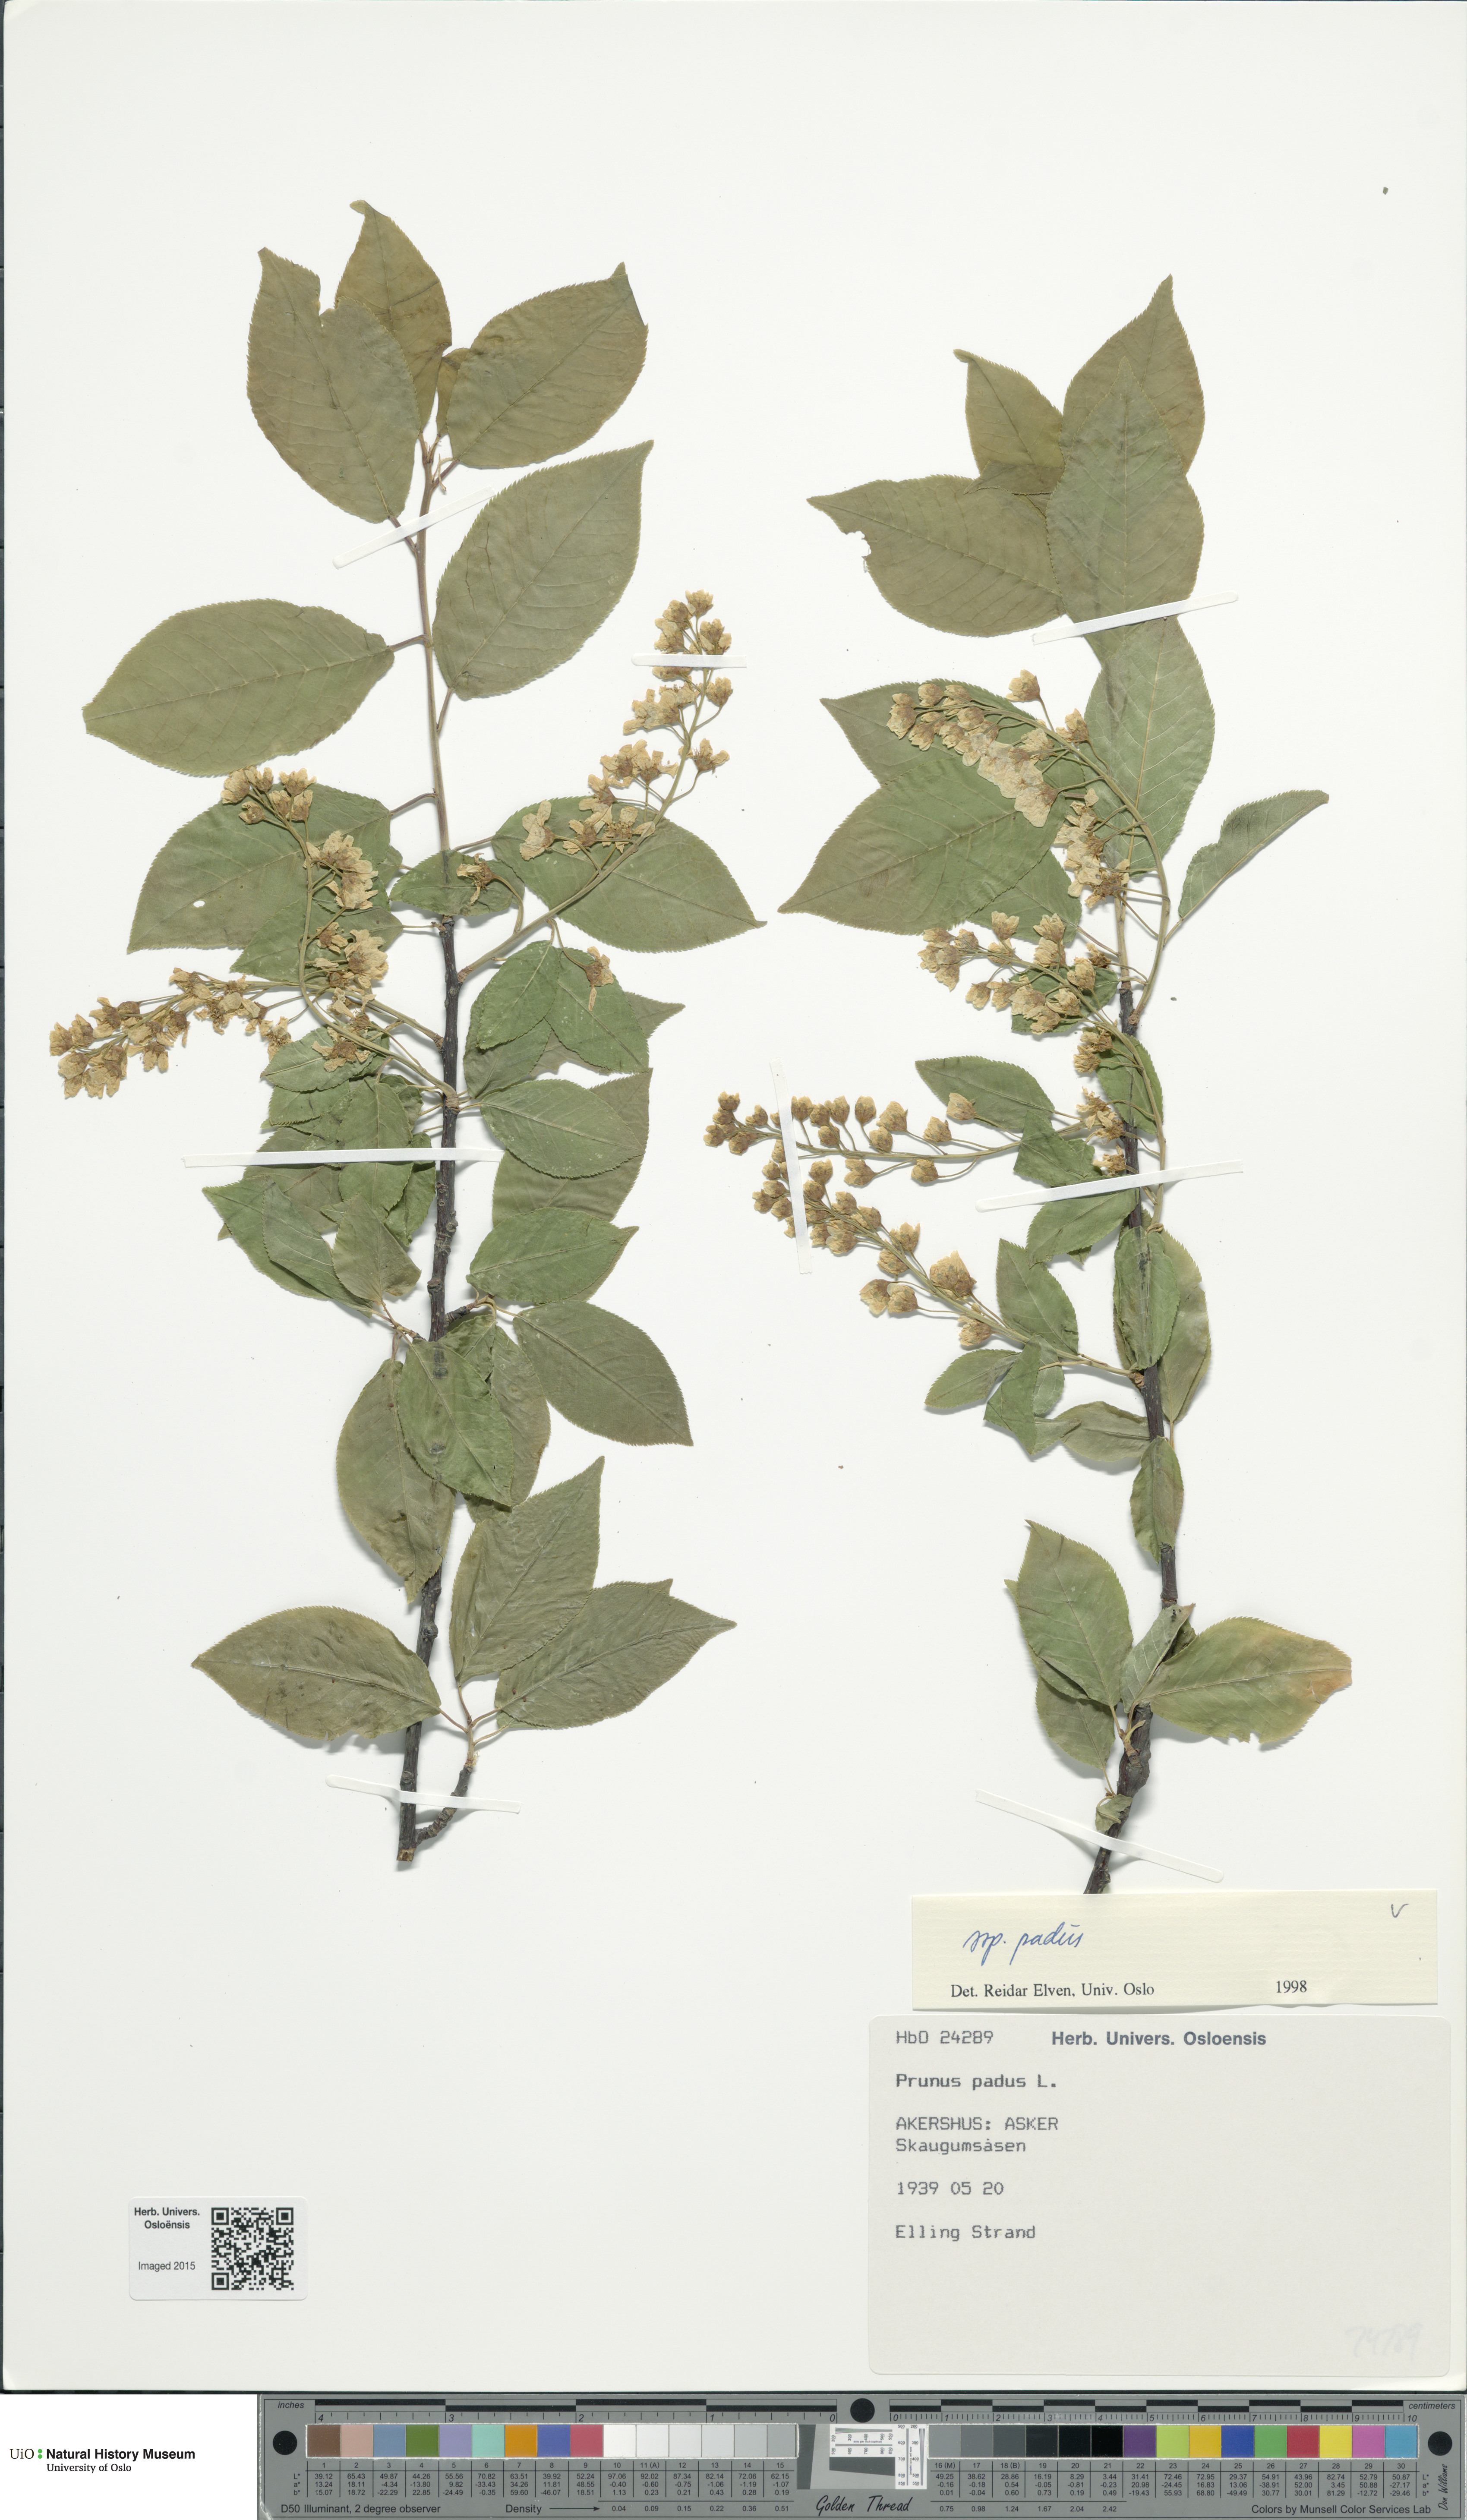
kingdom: Plantae
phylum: Tracheophyta
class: Magnoliopsida
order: Rosales
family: Rosaceae
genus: Prunus
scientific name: Prunus padus
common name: Bird cherry
